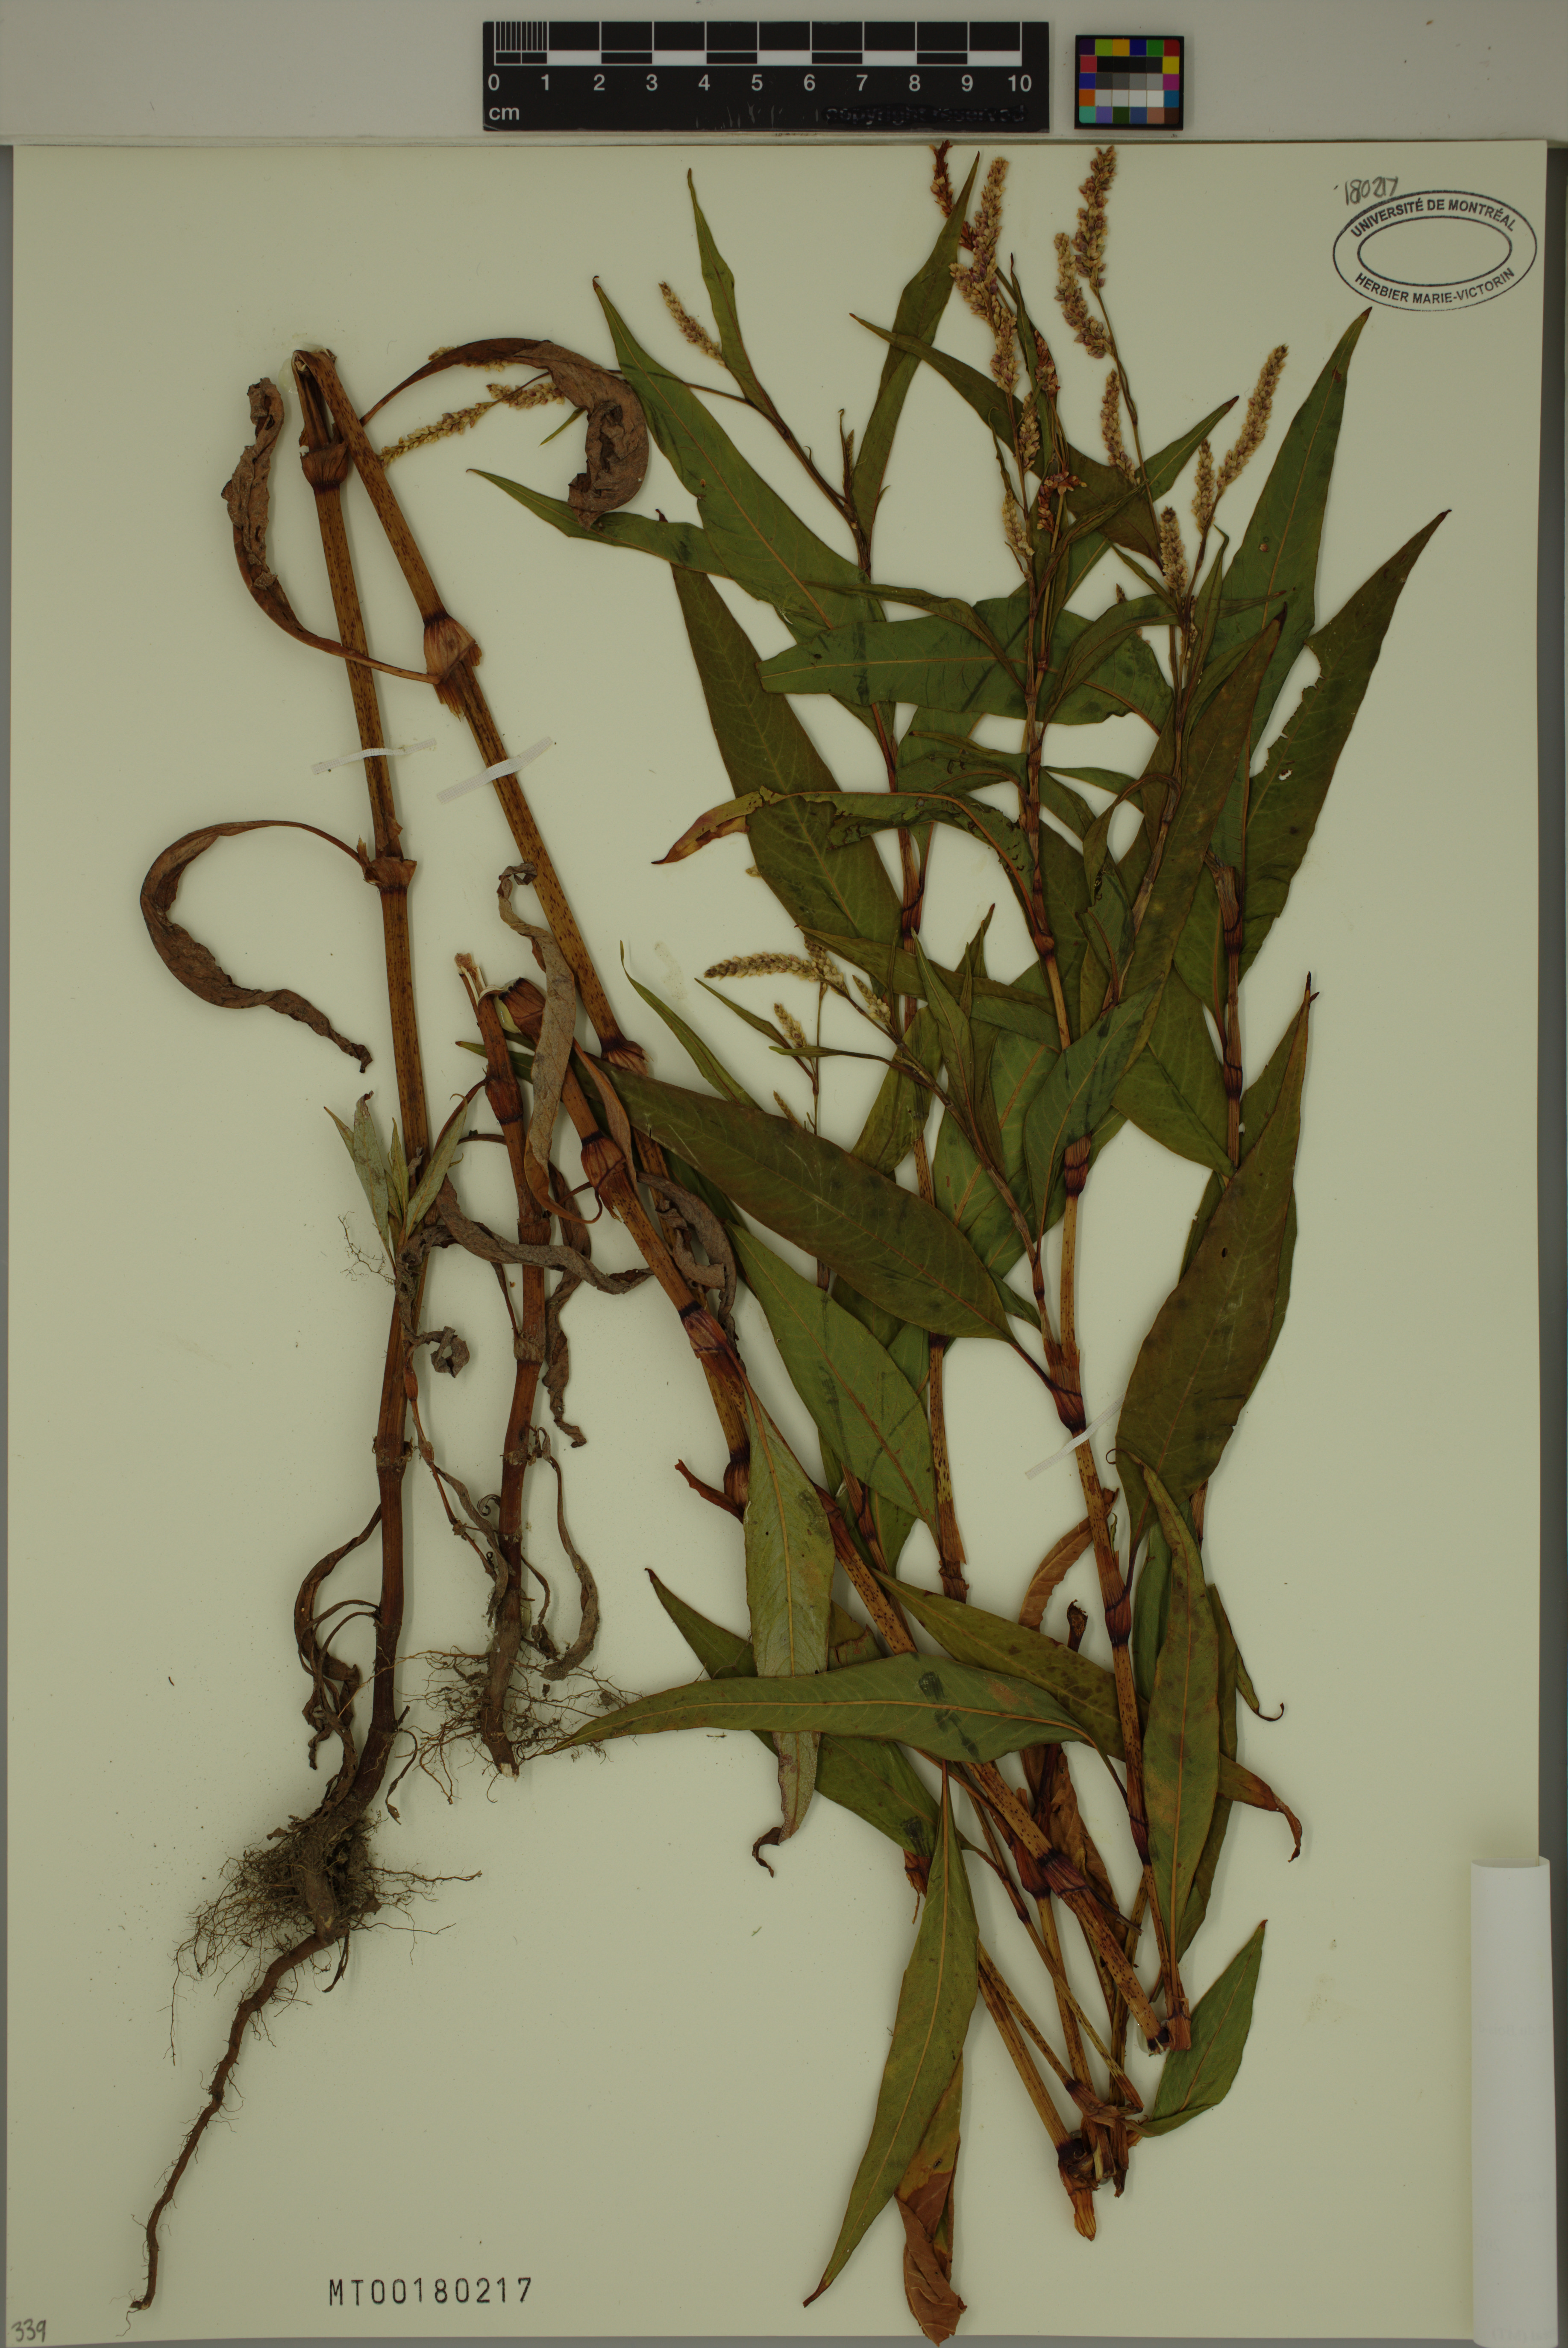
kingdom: Plantae
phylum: Tracheophyta
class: Magnoliopsida
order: Caryophyllales
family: Polygonaceae
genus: Persicaria
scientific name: Persicaria lapathifolia
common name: Curlytop knotweed
